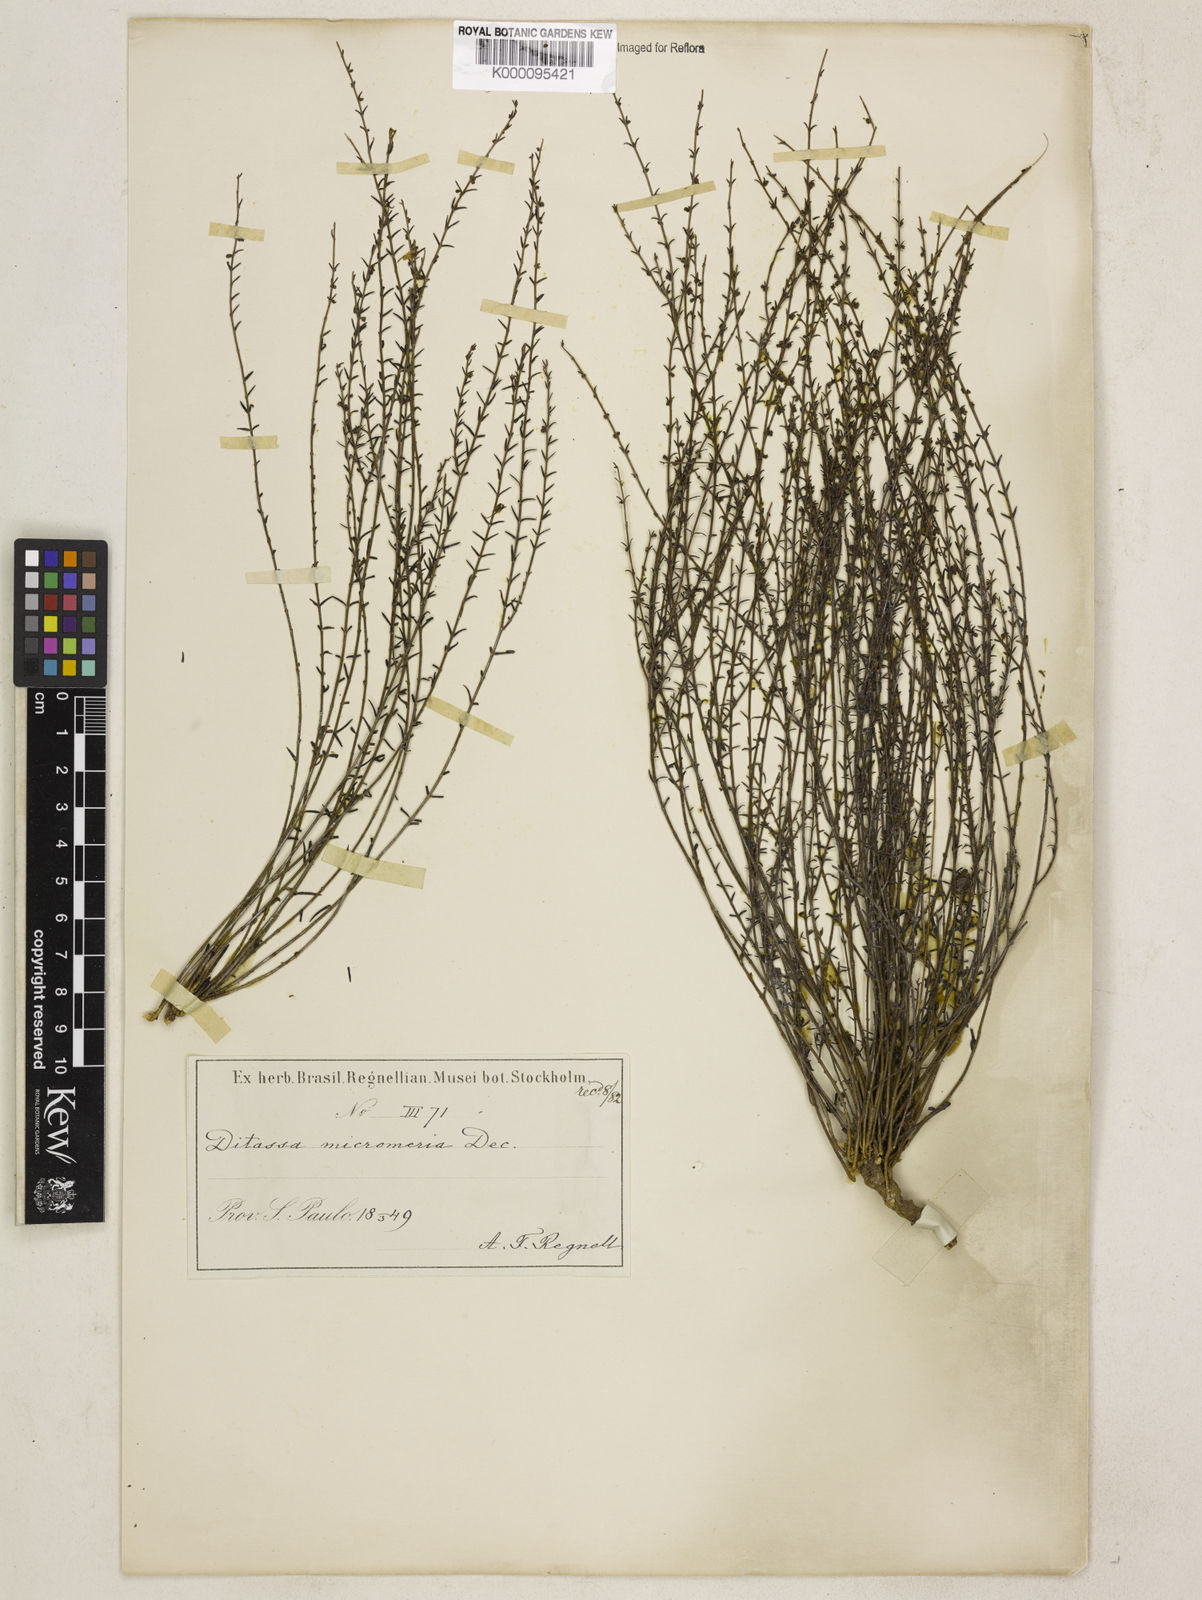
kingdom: Plantae
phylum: Tracheophyta
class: Magnoliopsida
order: Gentianales
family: Apocynaceae
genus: Minaria
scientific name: Minaria micromeria
